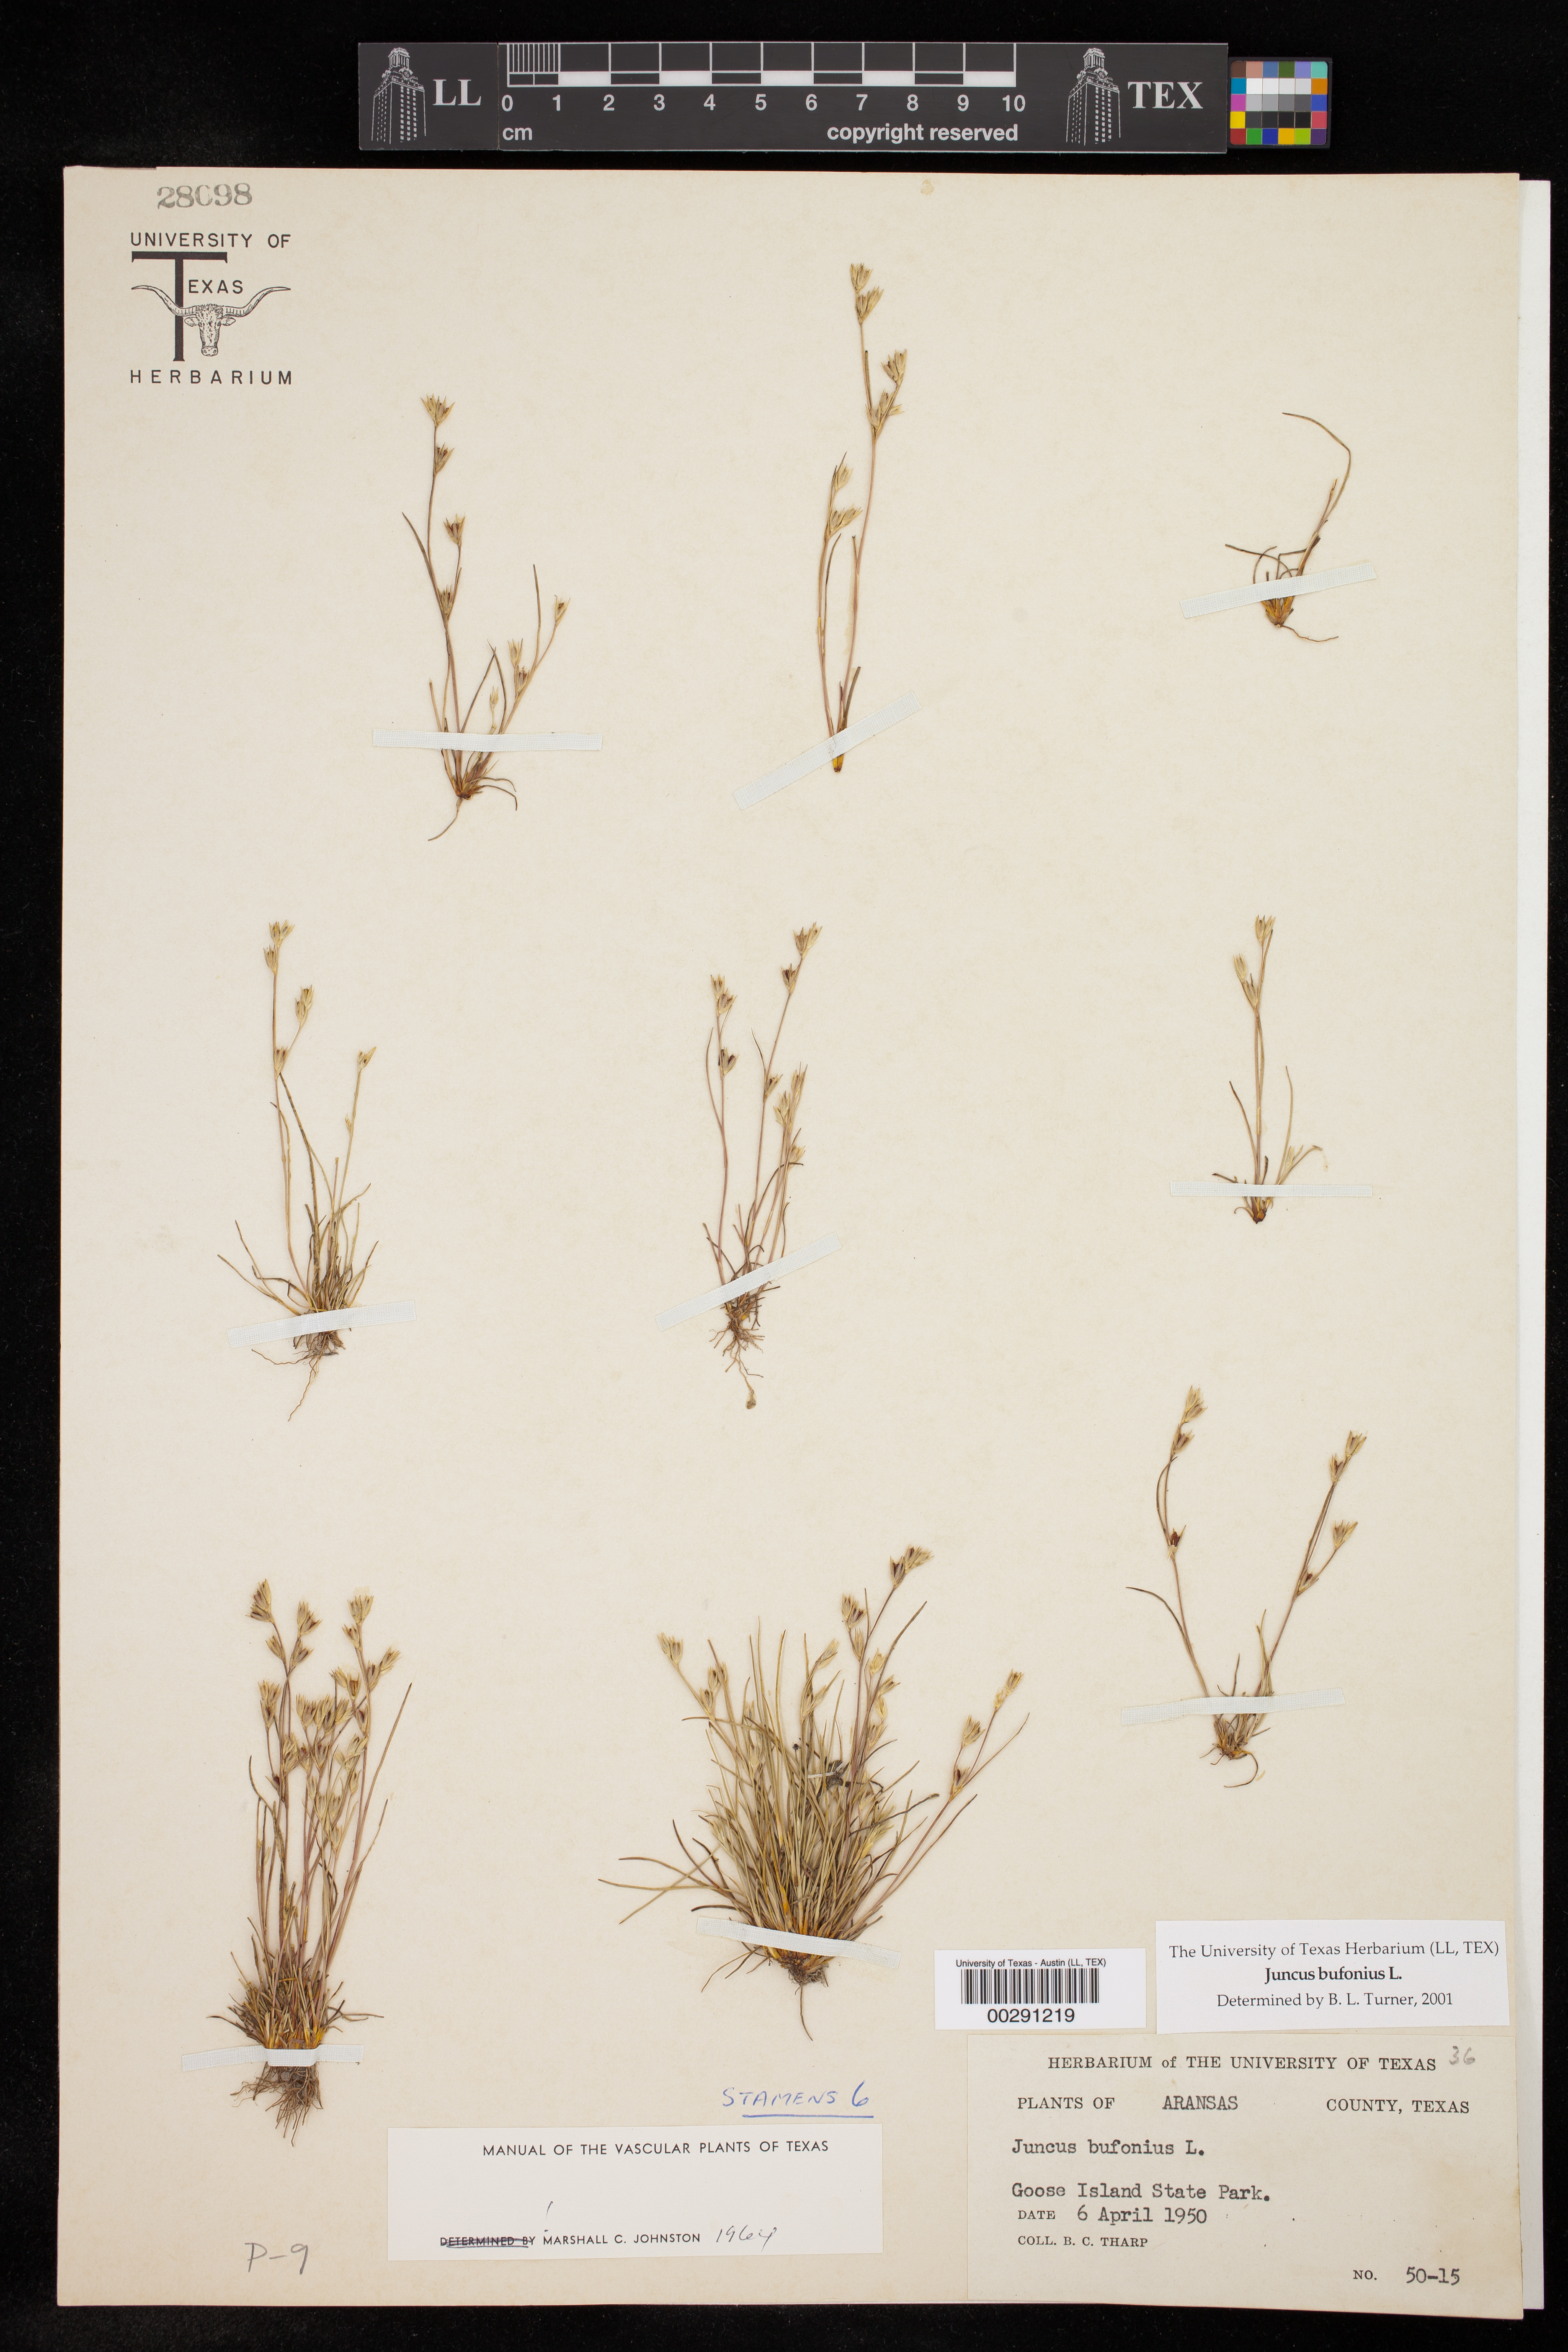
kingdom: Plantae
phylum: Tracheophyta
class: Liliopsida
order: Poales
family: Juncaceae
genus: Juncus
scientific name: Juncus bufonius
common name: Toad rush
